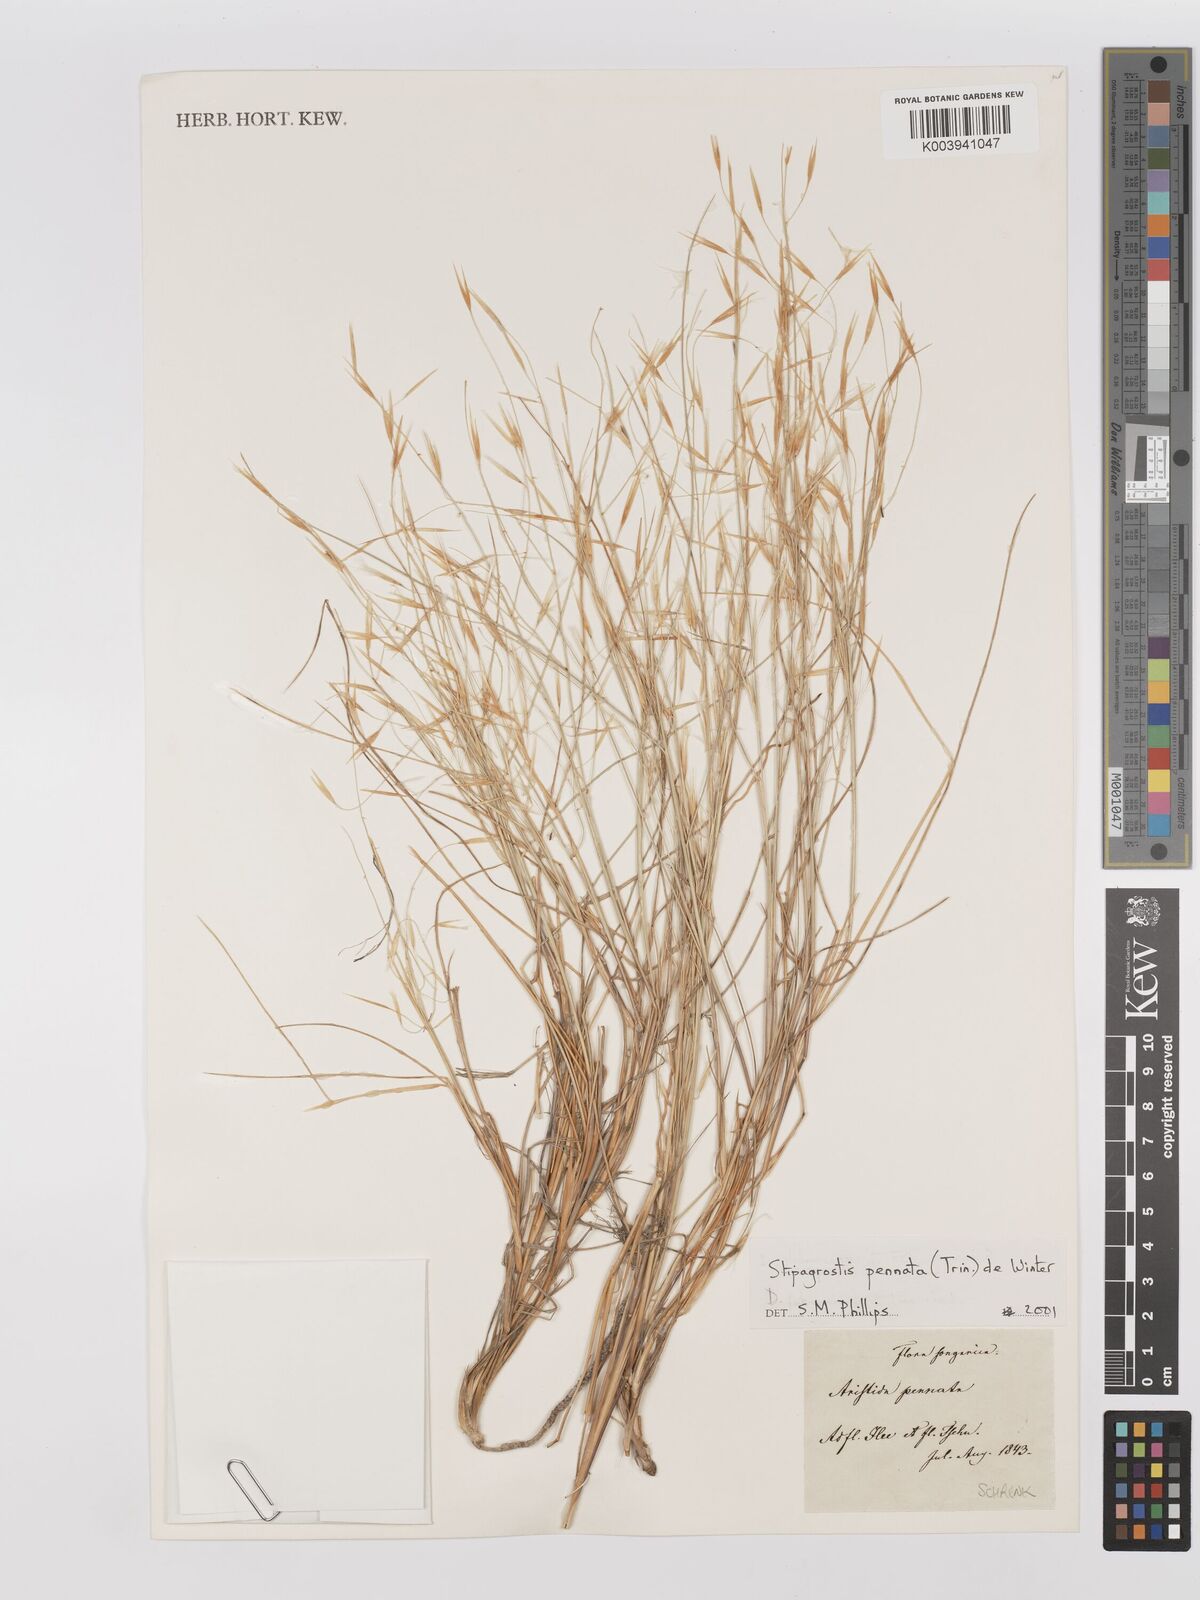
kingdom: Plantae
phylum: Tracheophyta
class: Liliopsida
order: Poales
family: Poaceae
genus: Stipagrostis
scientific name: Stipagrostis pennata
